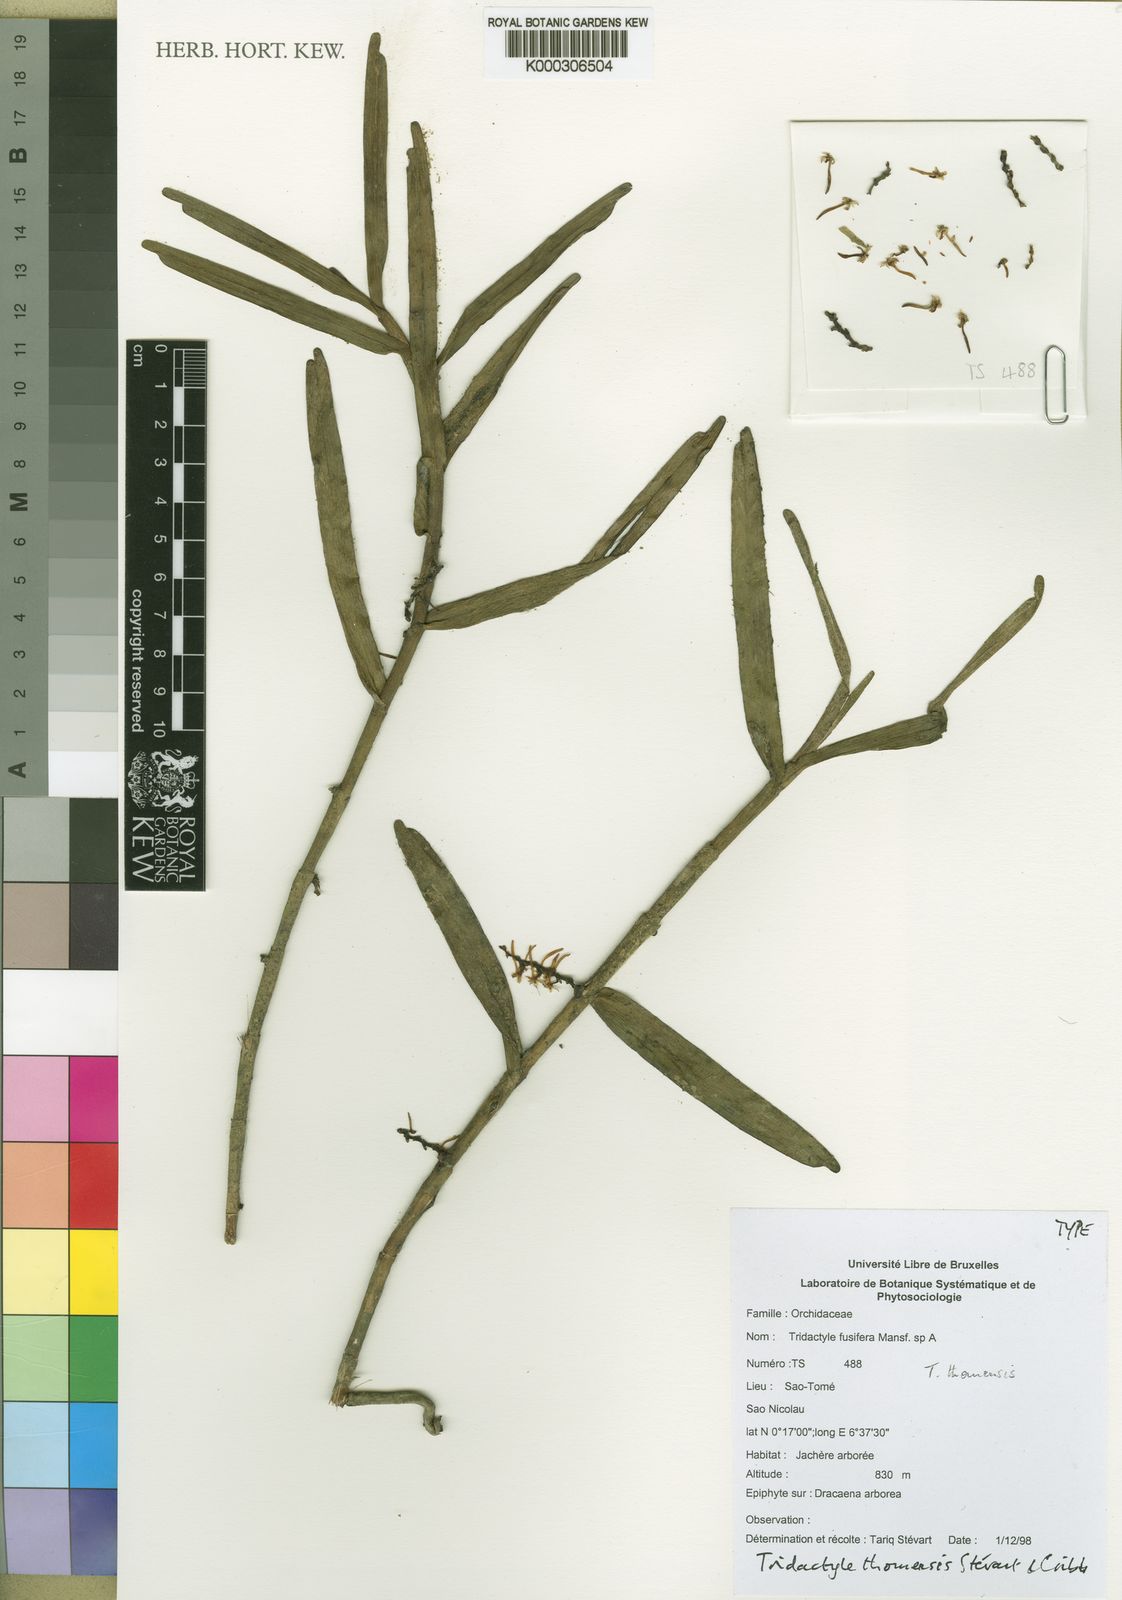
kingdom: Plantae
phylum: Tracheophyta
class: Liliopsida
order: Asparagales
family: Orchidaceae
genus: Tridactyle
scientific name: Tridactyle
